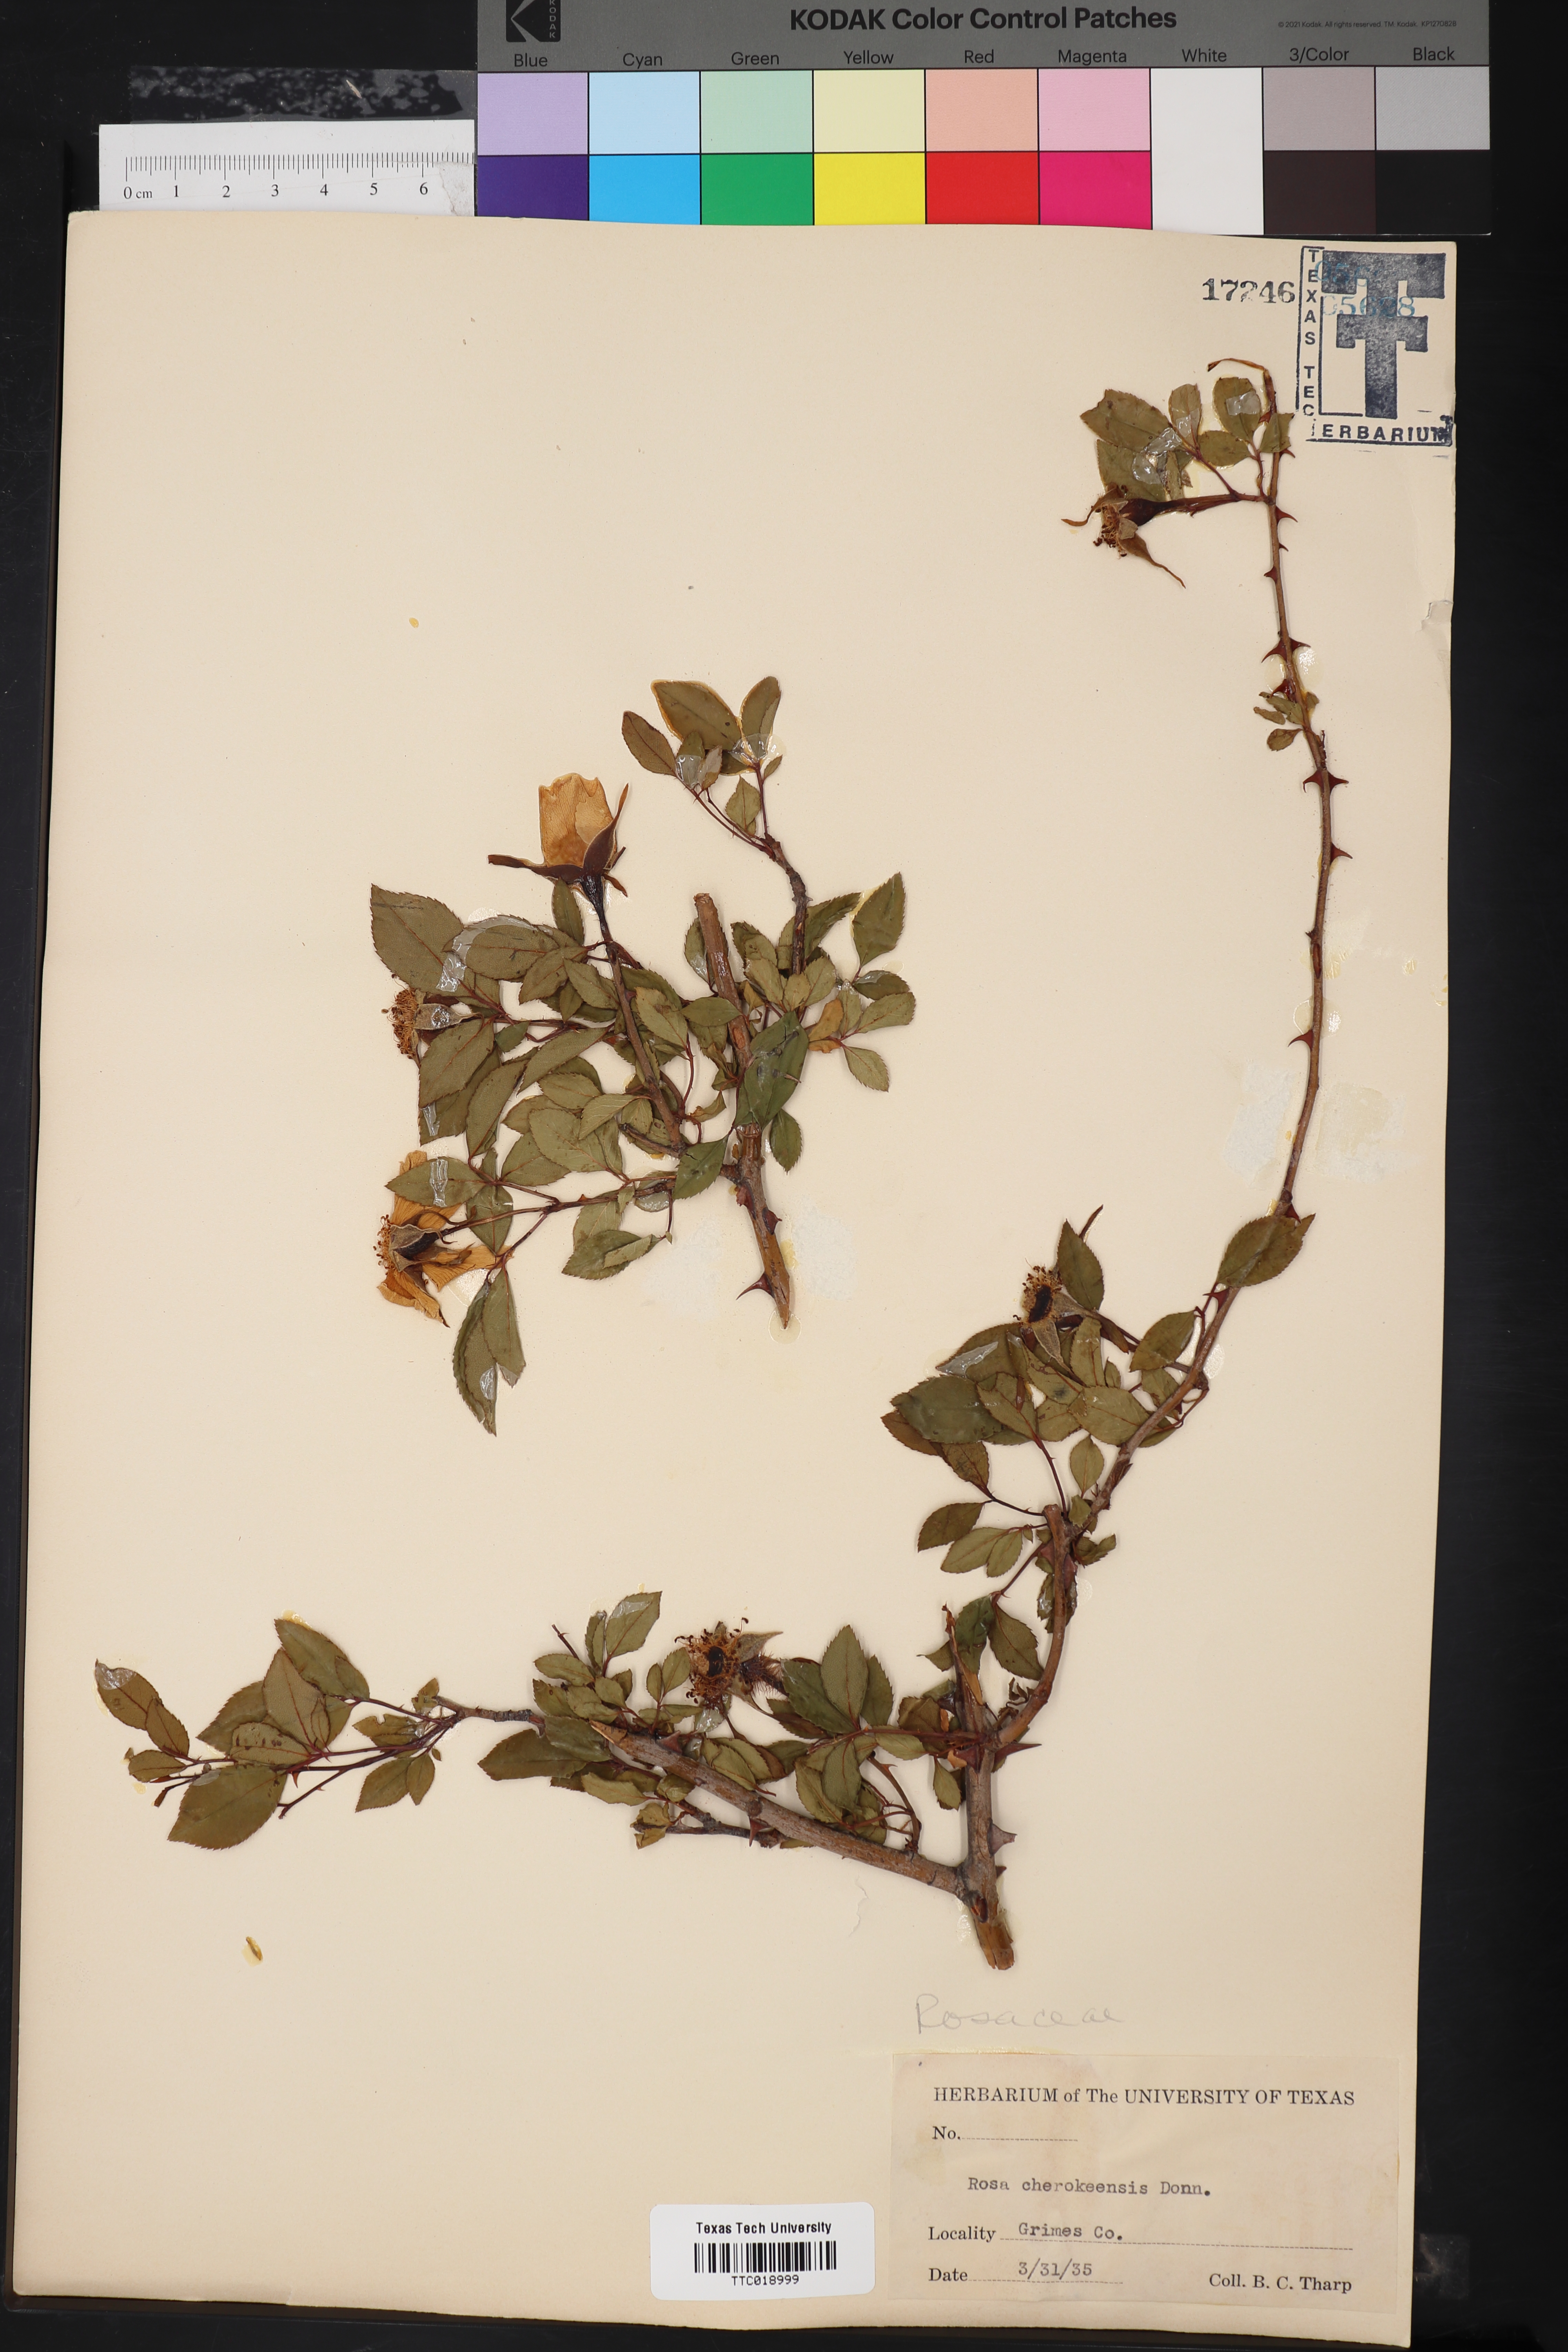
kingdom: Plantae
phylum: Tracheophyta
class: Magnoliopsida
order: Rosales
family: Rosaceae
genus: Rosa
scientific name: Rosa laevigata
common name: Cherokee rose
